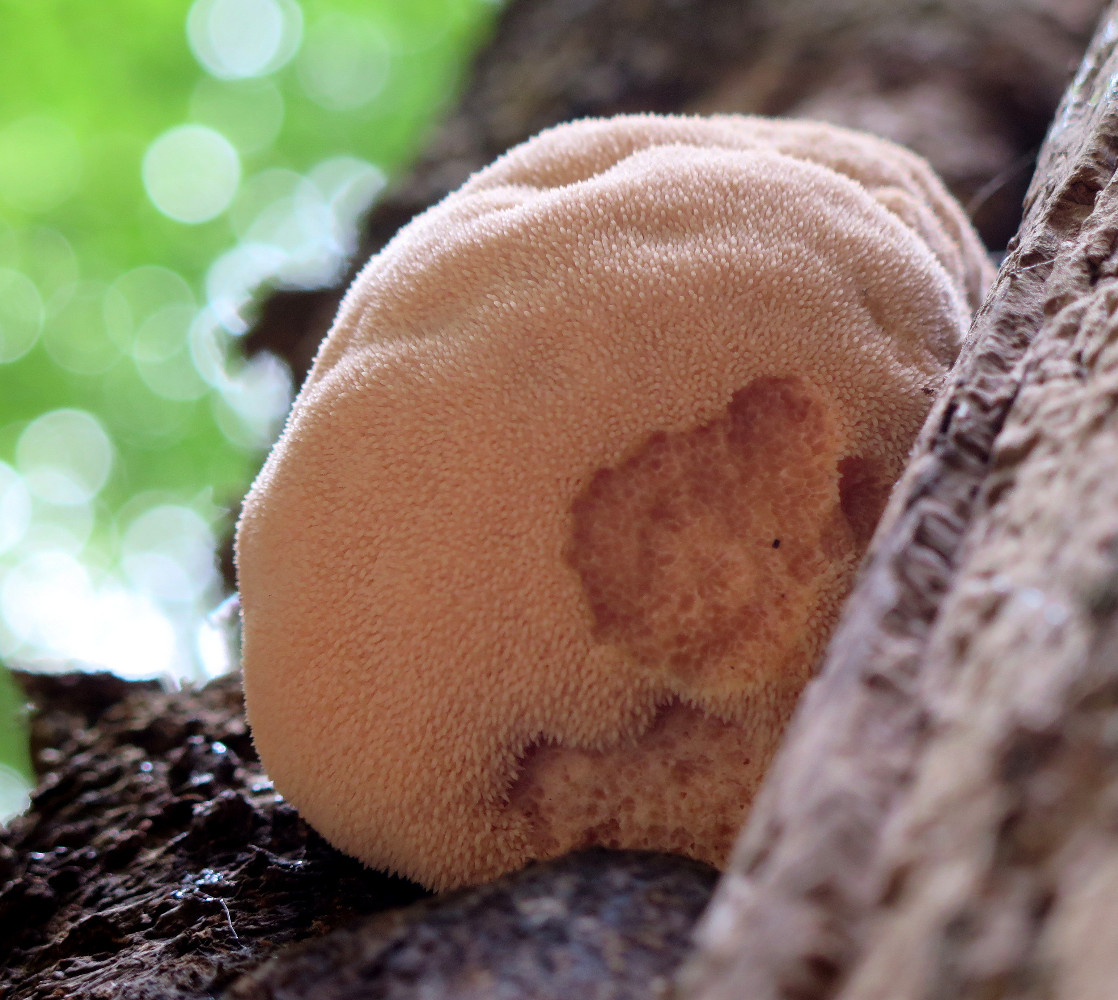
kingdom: Fungi
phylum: Basidiomycota
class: Agaricomycetes
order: Russulales
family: Hericiaceae
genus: Hericium
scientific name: Hericium erinaceus
